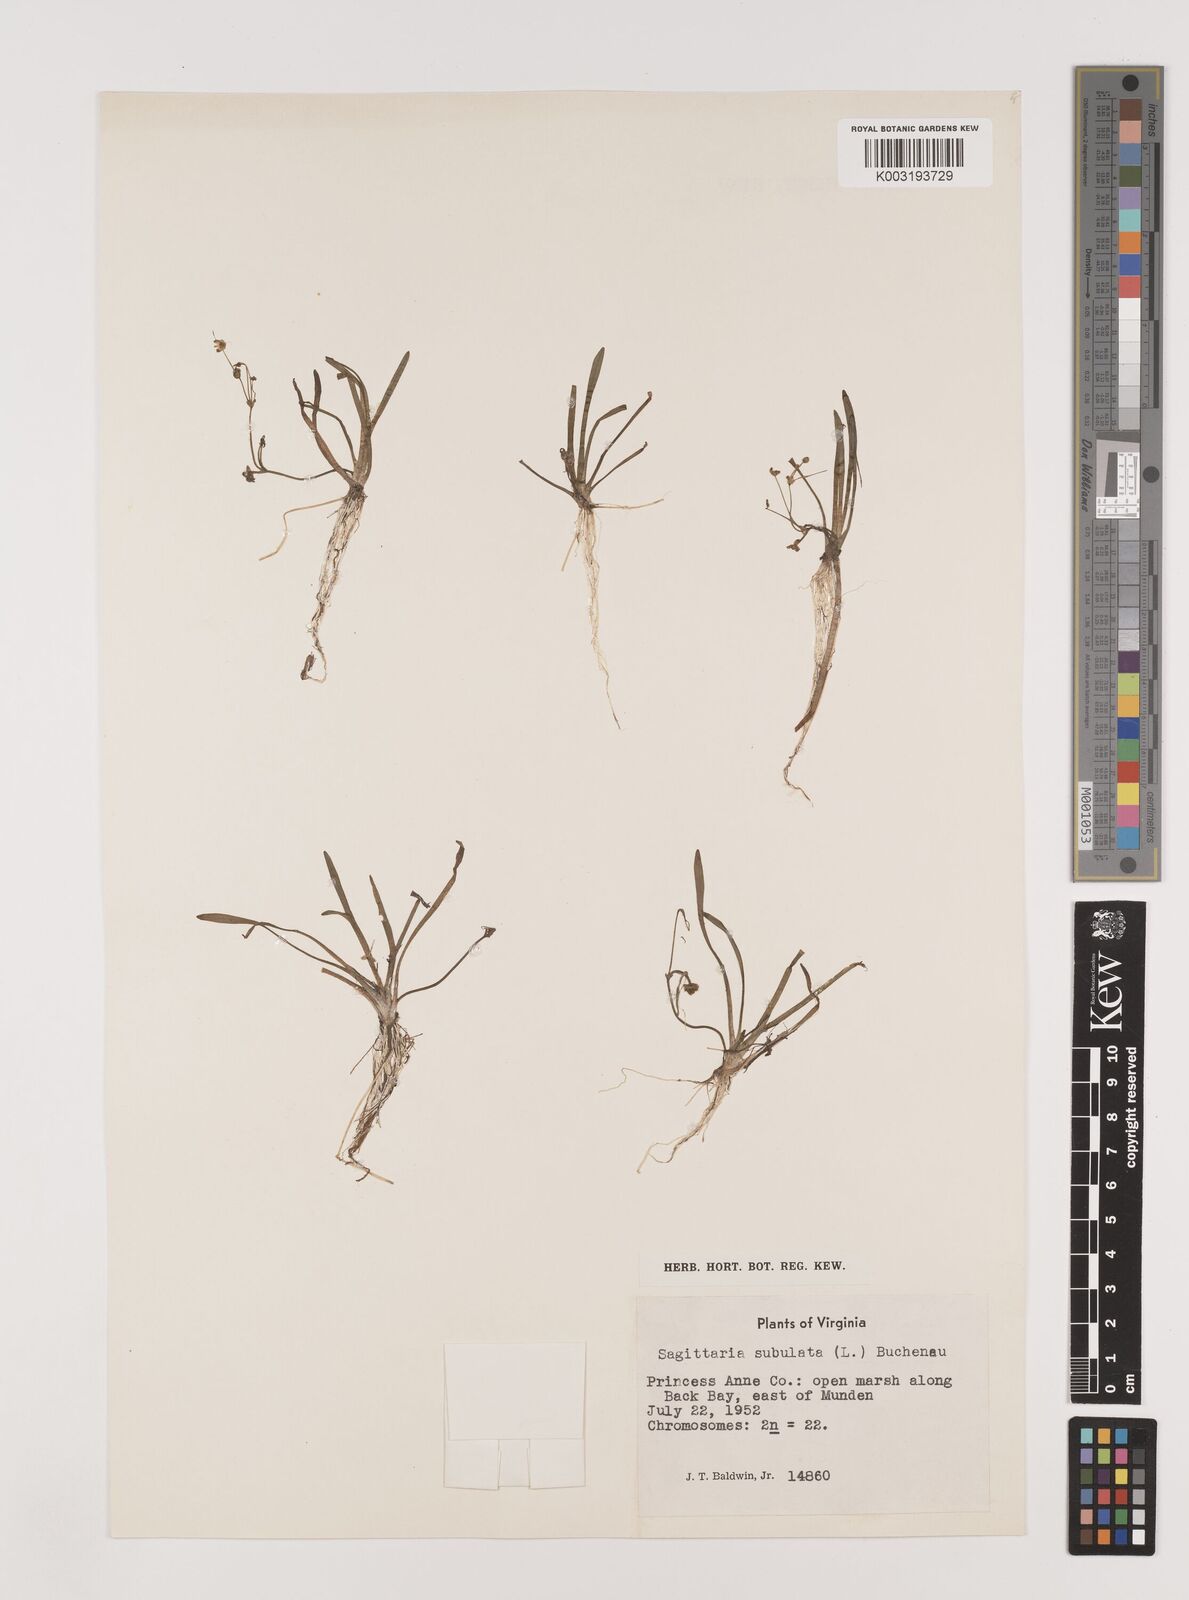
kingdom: Plantae
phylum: Tracheophyta
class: Liliopsida
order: Alismatales
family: Alismataceae
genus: Sagittaria
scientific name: Sagittaria subulata
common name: Narrow-leaved arrowhead
